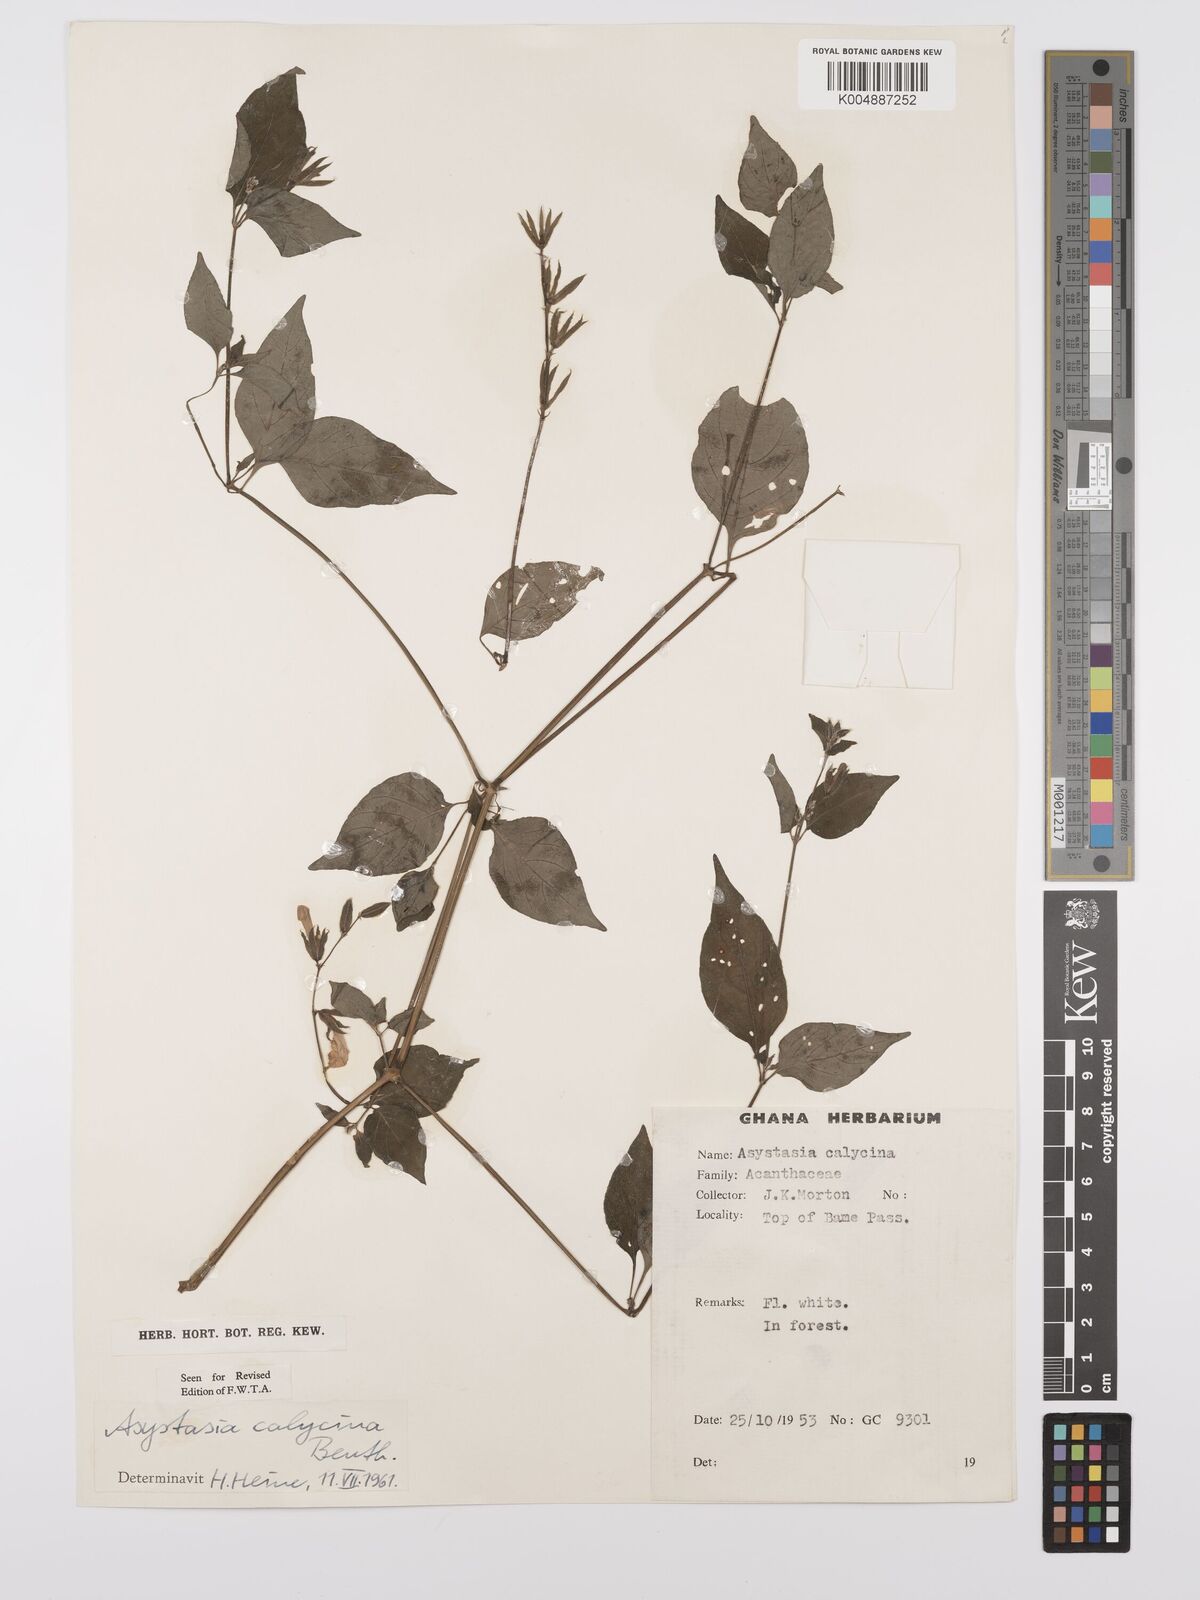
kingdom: Plantae
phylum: Tracheophyta
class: Magnoliopsida
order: Lamiales
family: Acanthaceae
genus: Asystasia
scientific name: Asystasia buettneri
